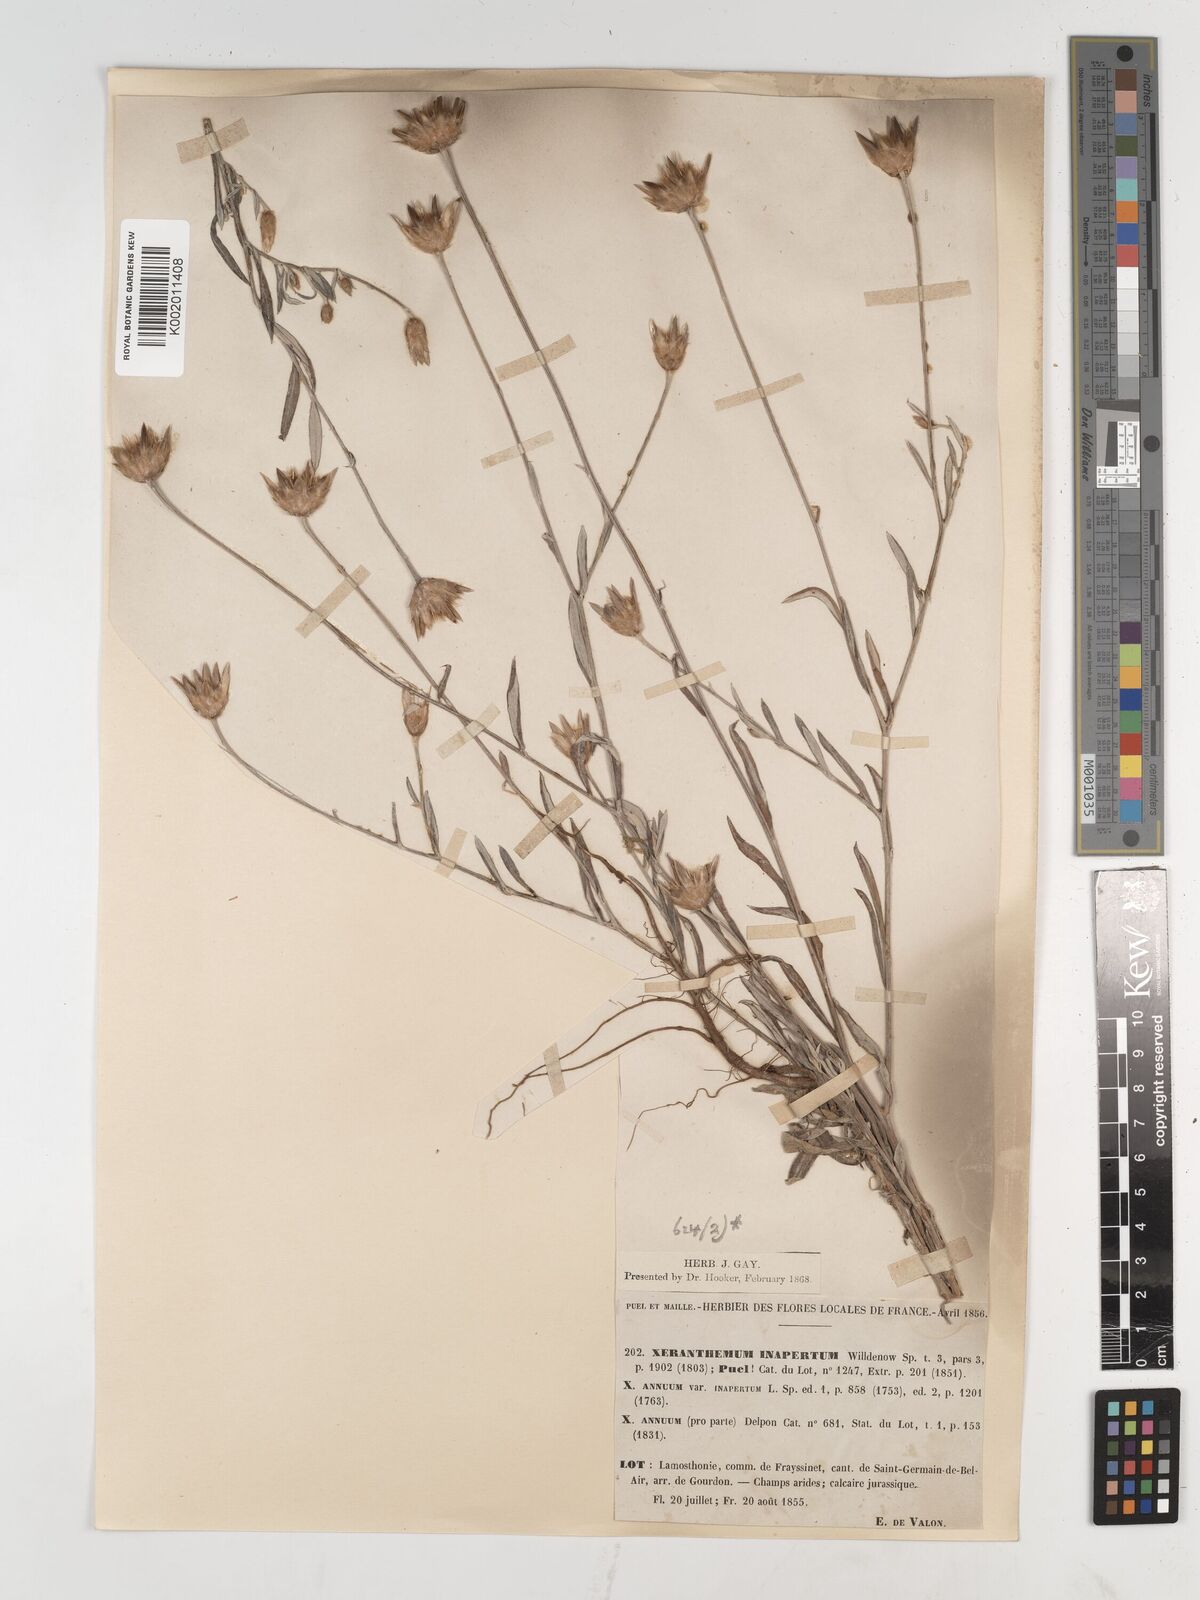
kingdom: Plantae
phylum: Tracheophyta
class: Magnoliopsida
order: Asterales
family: Asteraceae
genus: Xeranthemum
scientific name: Xeranthemum inapertum
